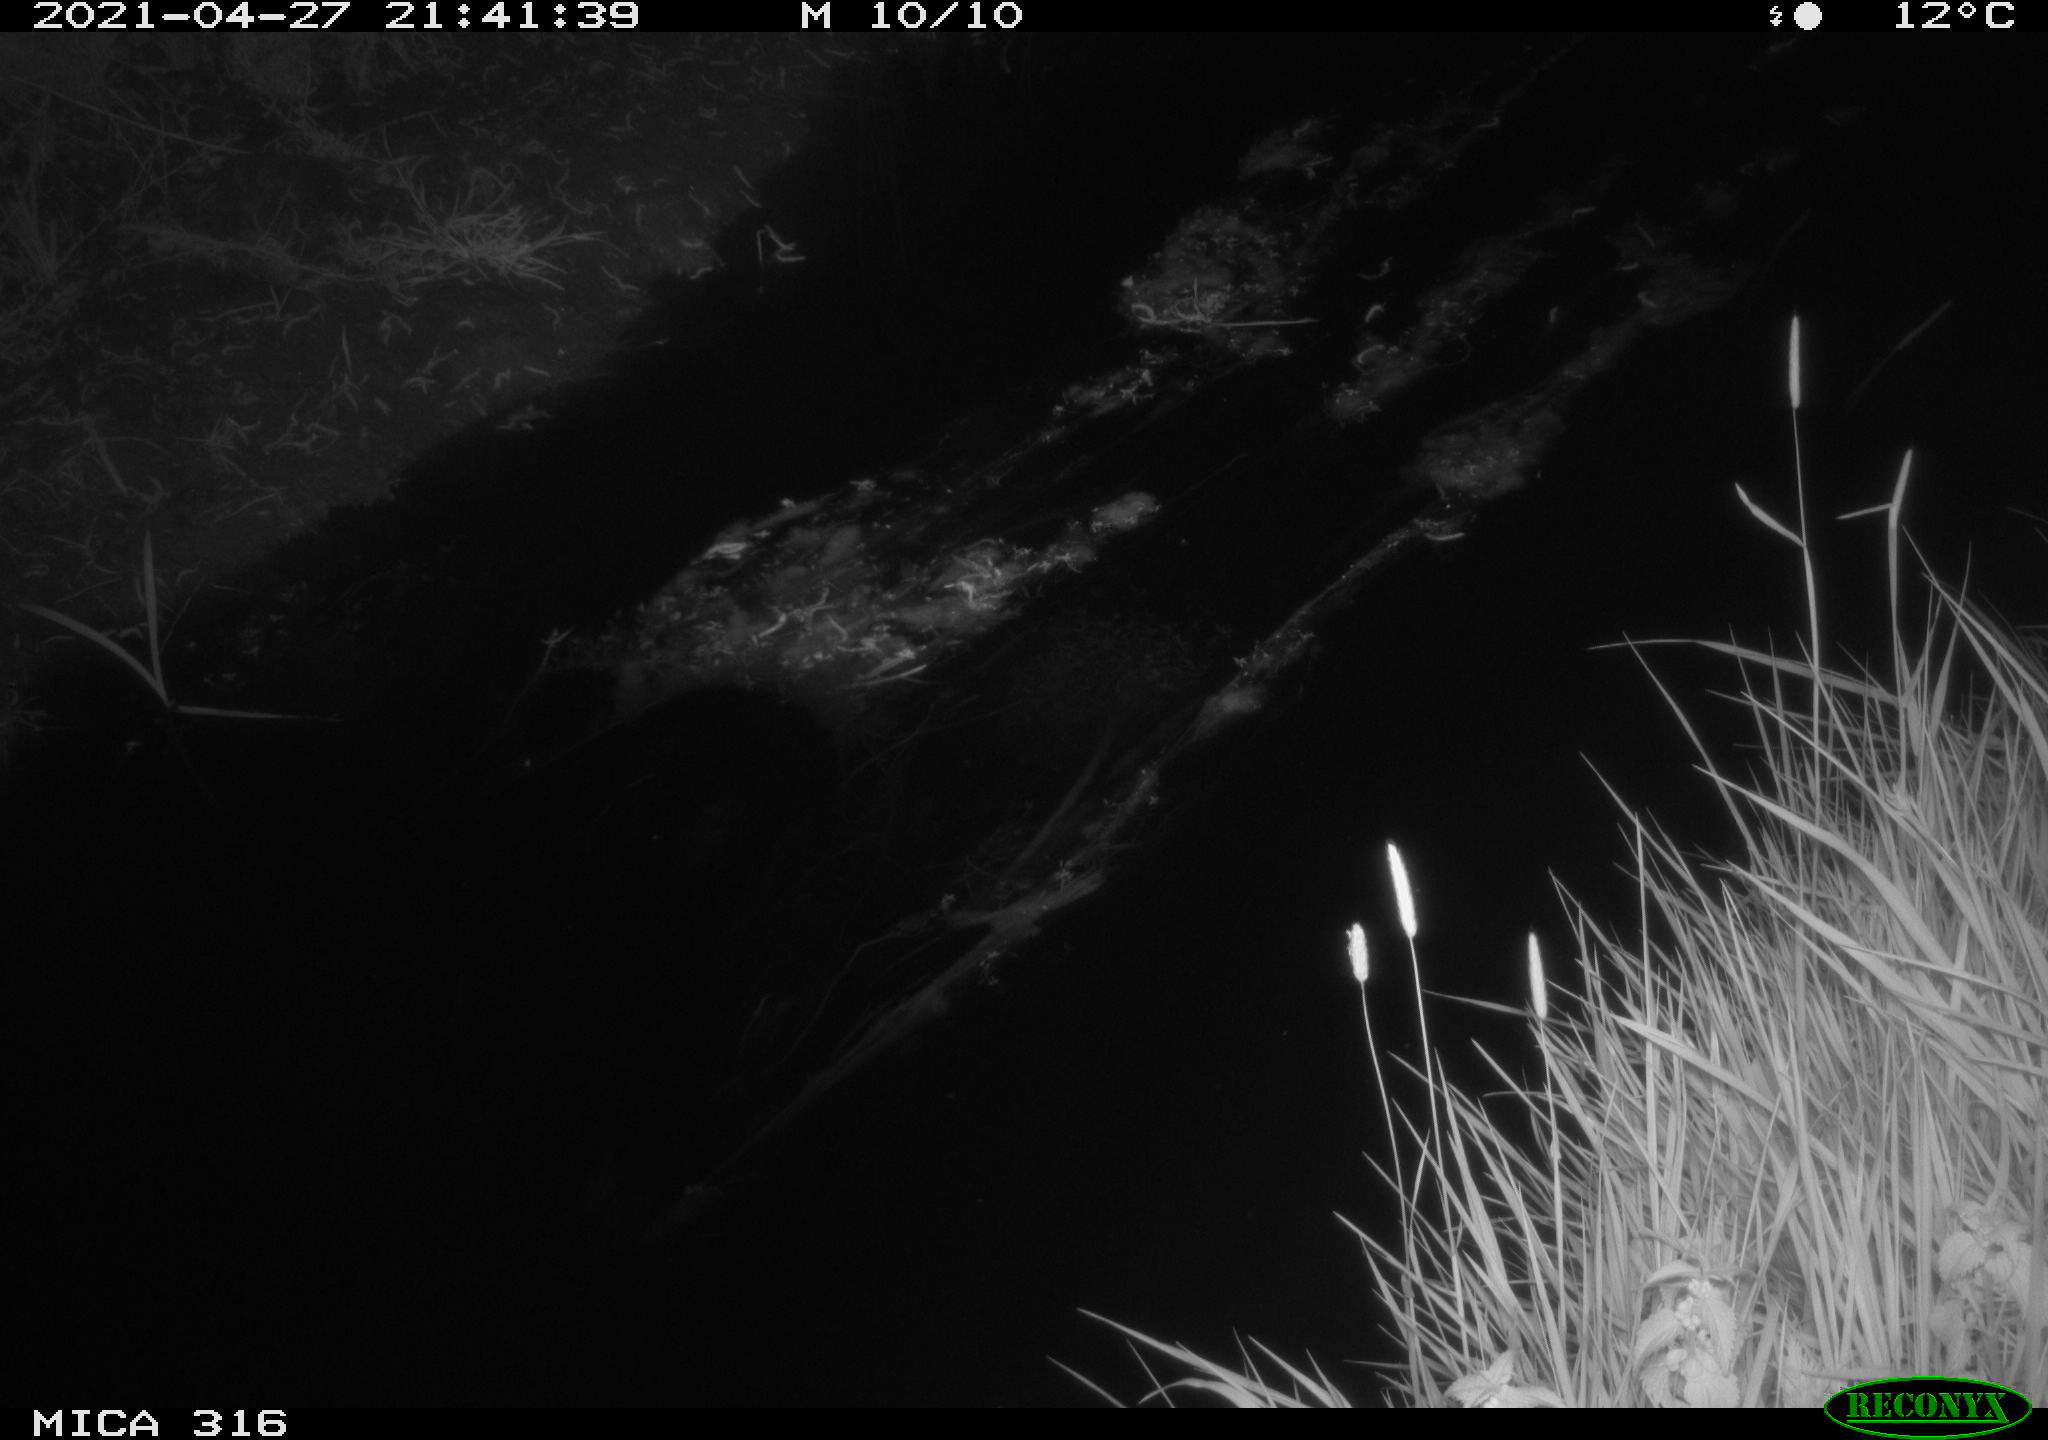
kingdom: Animalia
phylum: Chordata
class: Aves
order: Pelecaniformes
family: Ardeidae
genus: Ardea
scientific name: Ardea cinerea
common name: Grey heron
